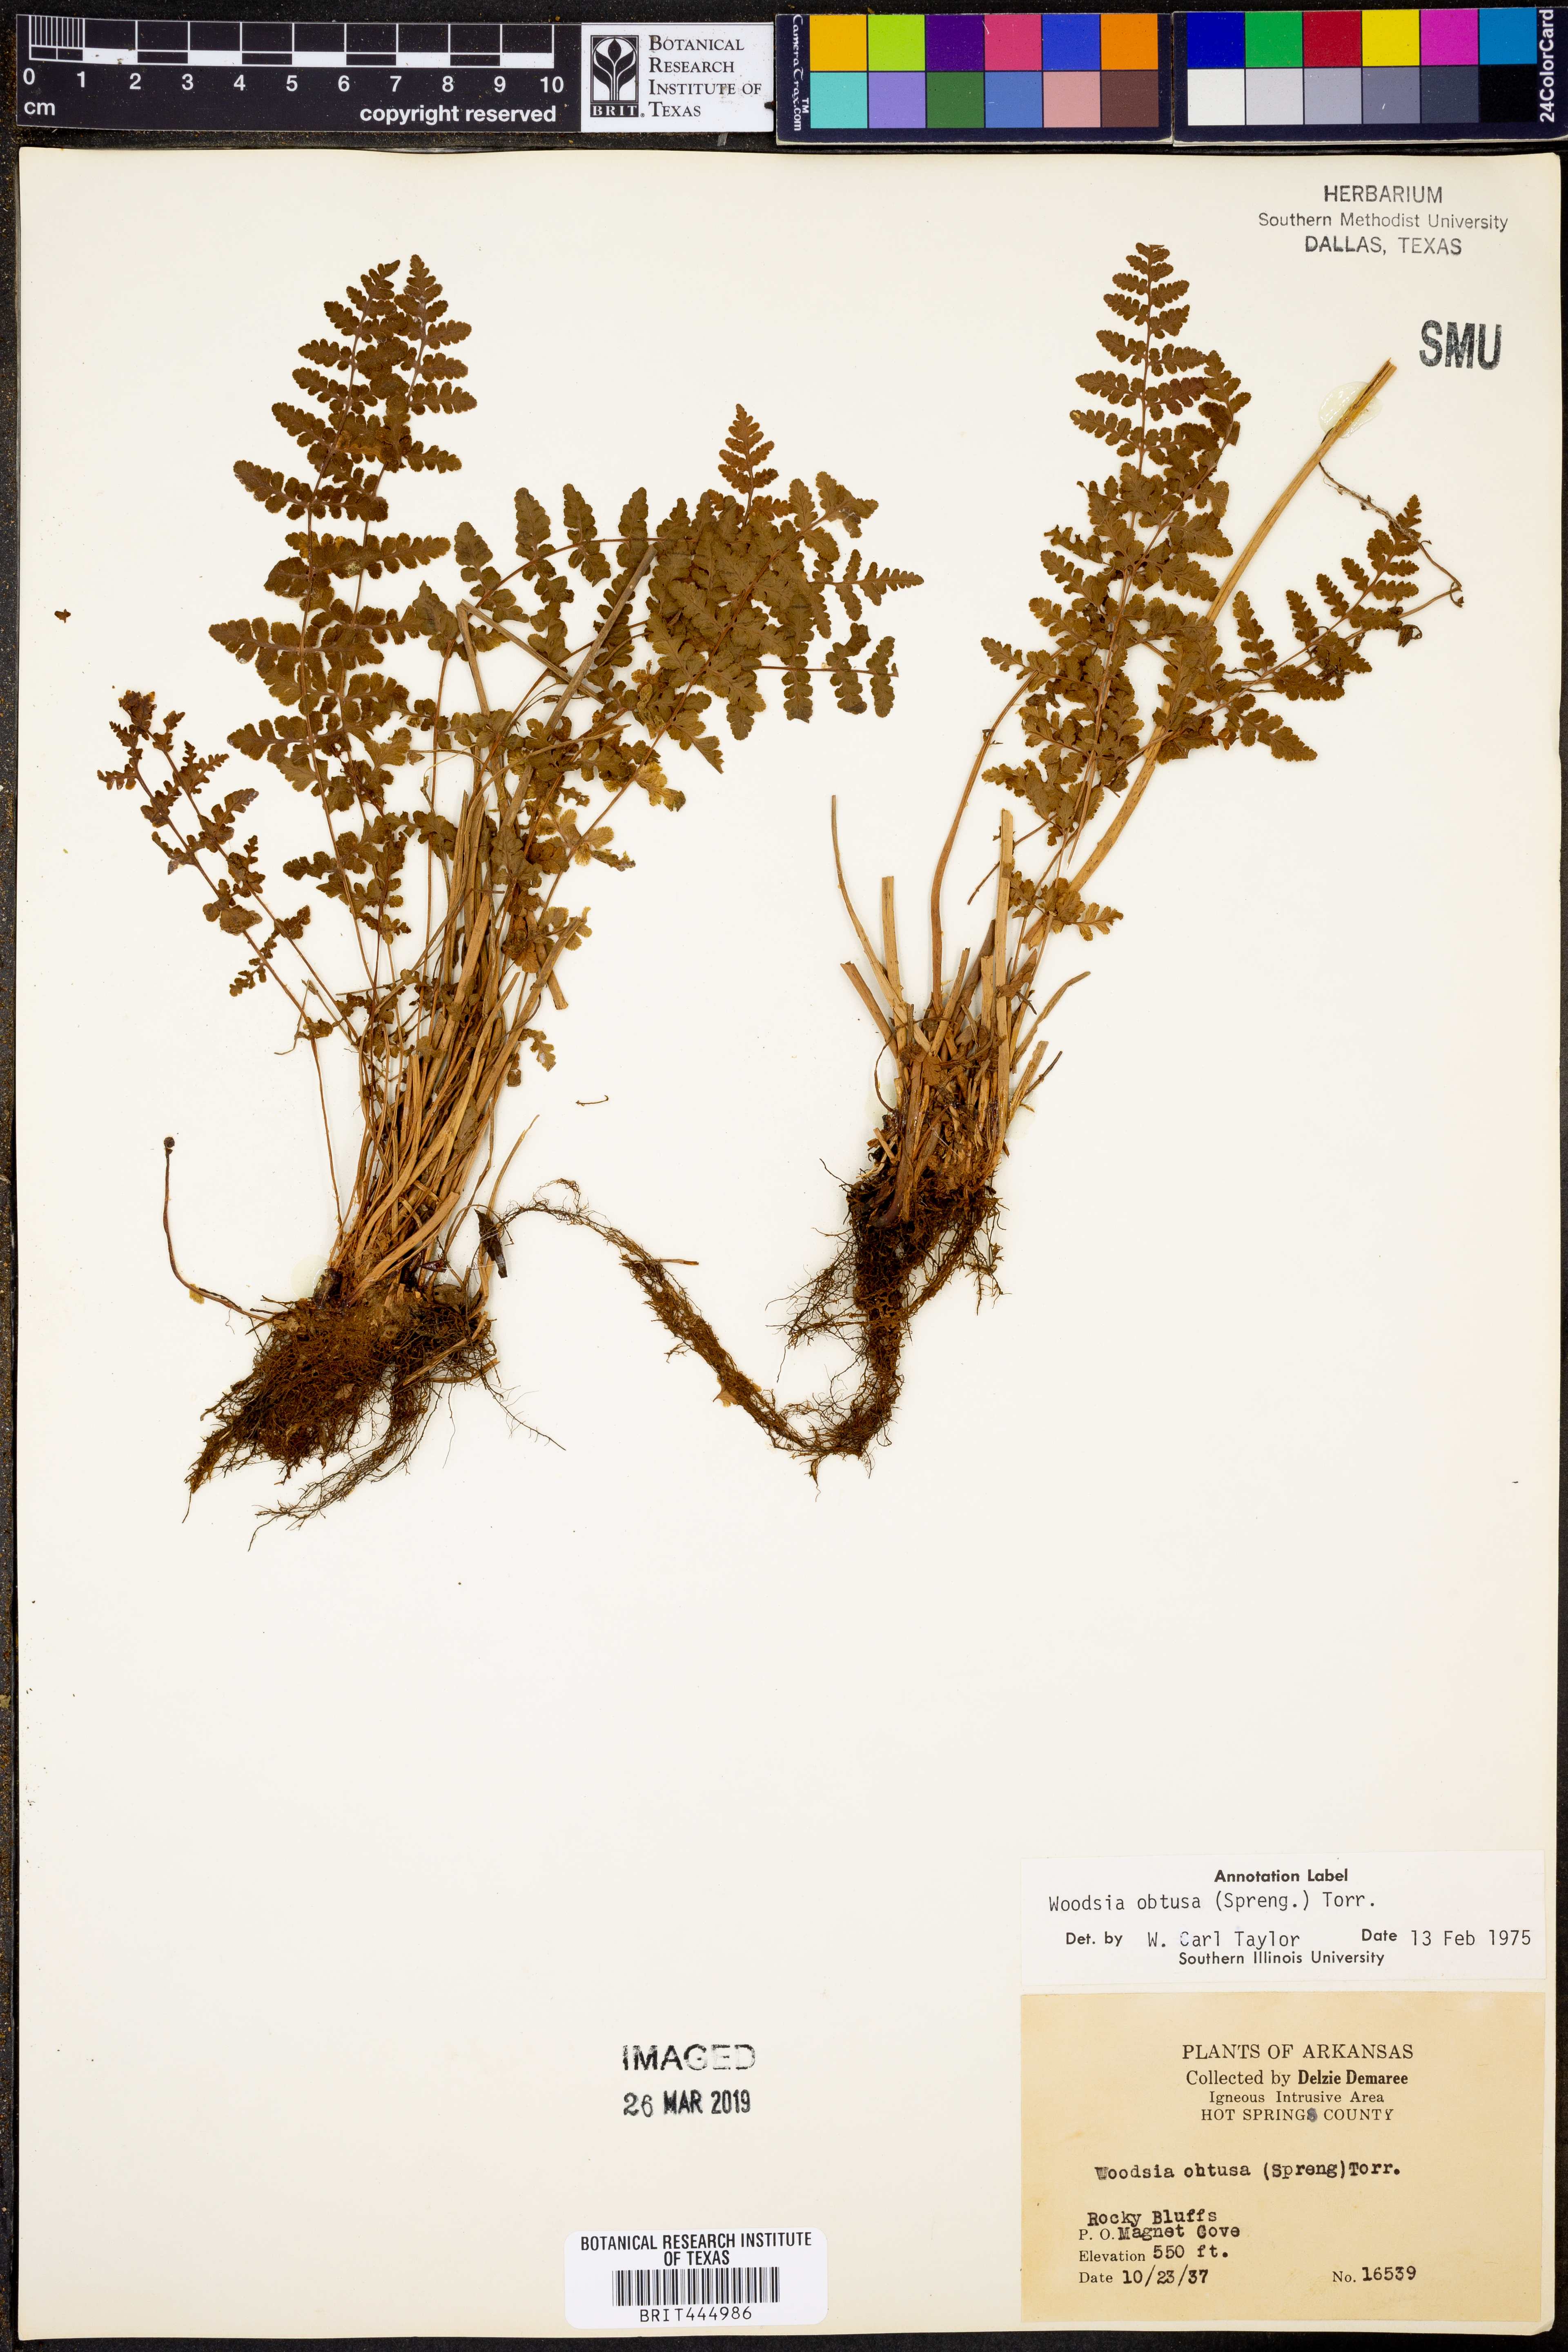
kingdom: Plantae
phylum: Tracheophyta
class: Polypodiopsida
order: Polypodiales
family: Woodsiaceae
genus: Physematium
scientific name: Physematium obtusum
